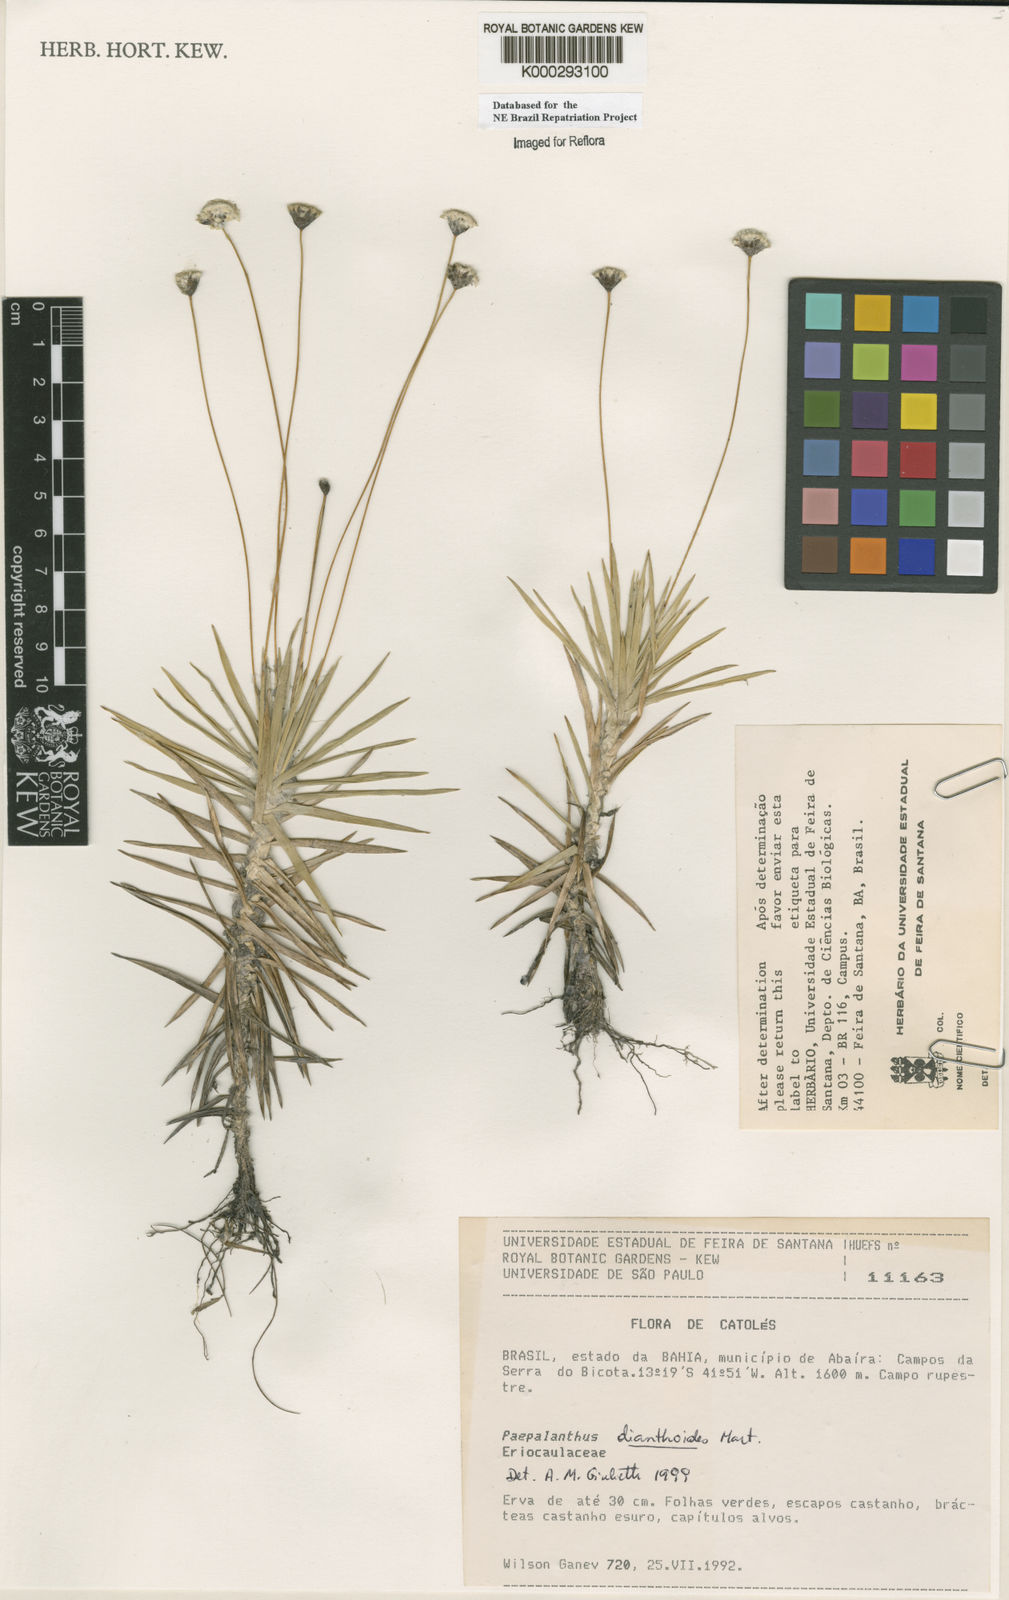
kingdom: Plantae
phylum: Tracheophyta
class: Liliopsida
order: Poales
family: Eriocaulaceae
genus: Paepalanthus
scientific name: Paepalanthus
